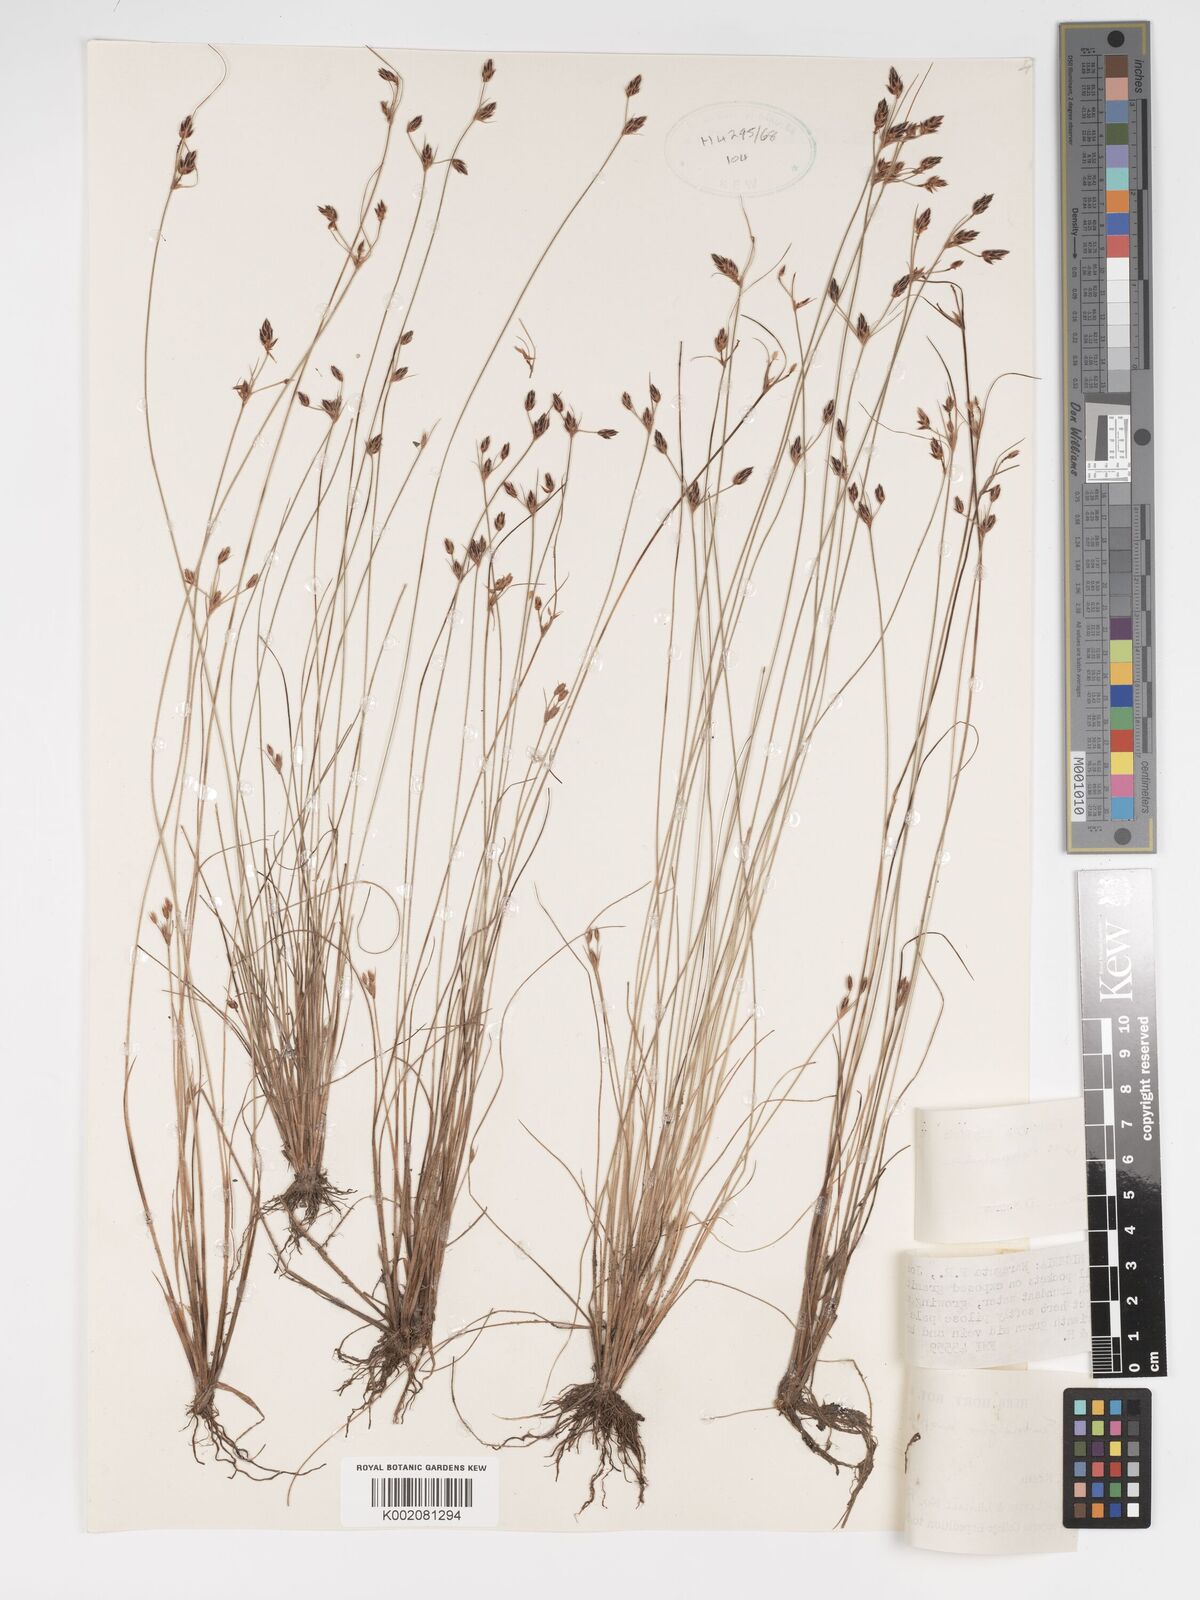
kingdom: Plantae
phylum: Tracheophyta
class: Liliopsida
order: Poales
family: Cyperaceae
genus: Bulbostylis
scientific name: Bulbostylis hispidula
